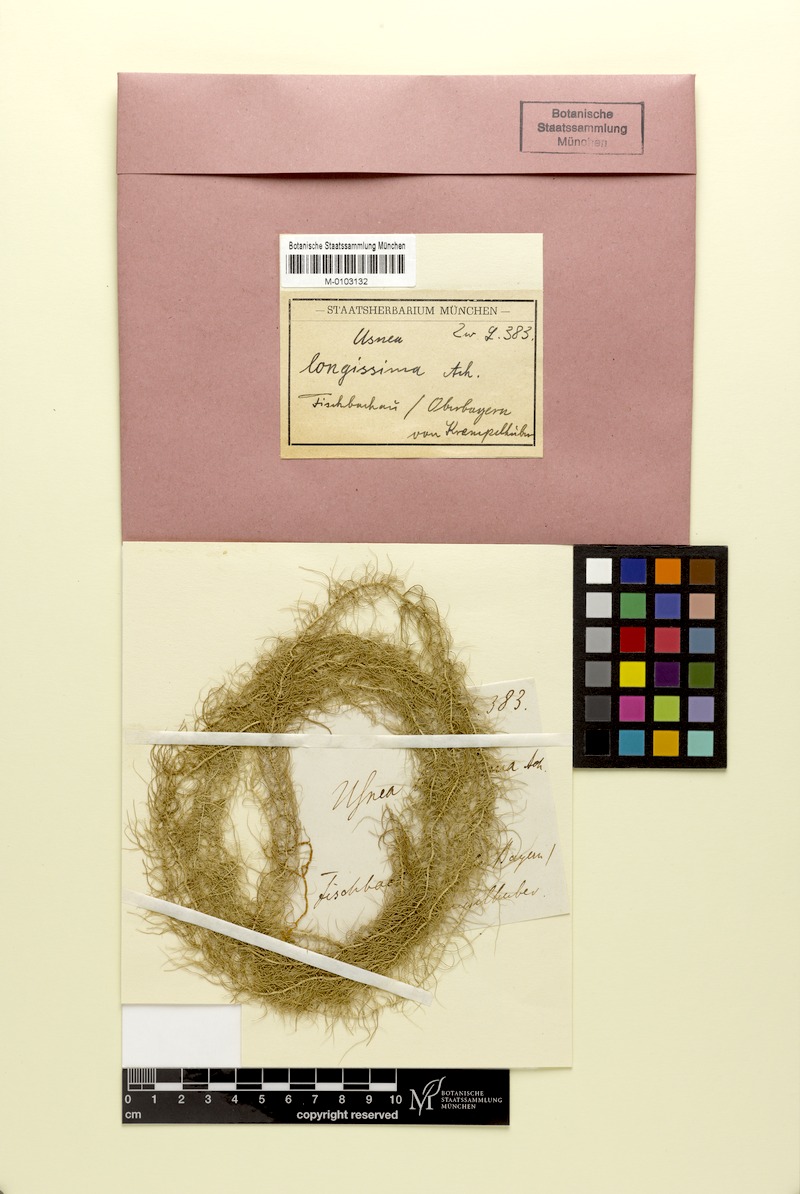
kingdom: Fungi
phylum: Ascomycota
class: Lecanoromycetes
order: Lecanorales
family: Parmeliaceae
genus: Dolichousnea
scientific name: Dolichousnea longissima
